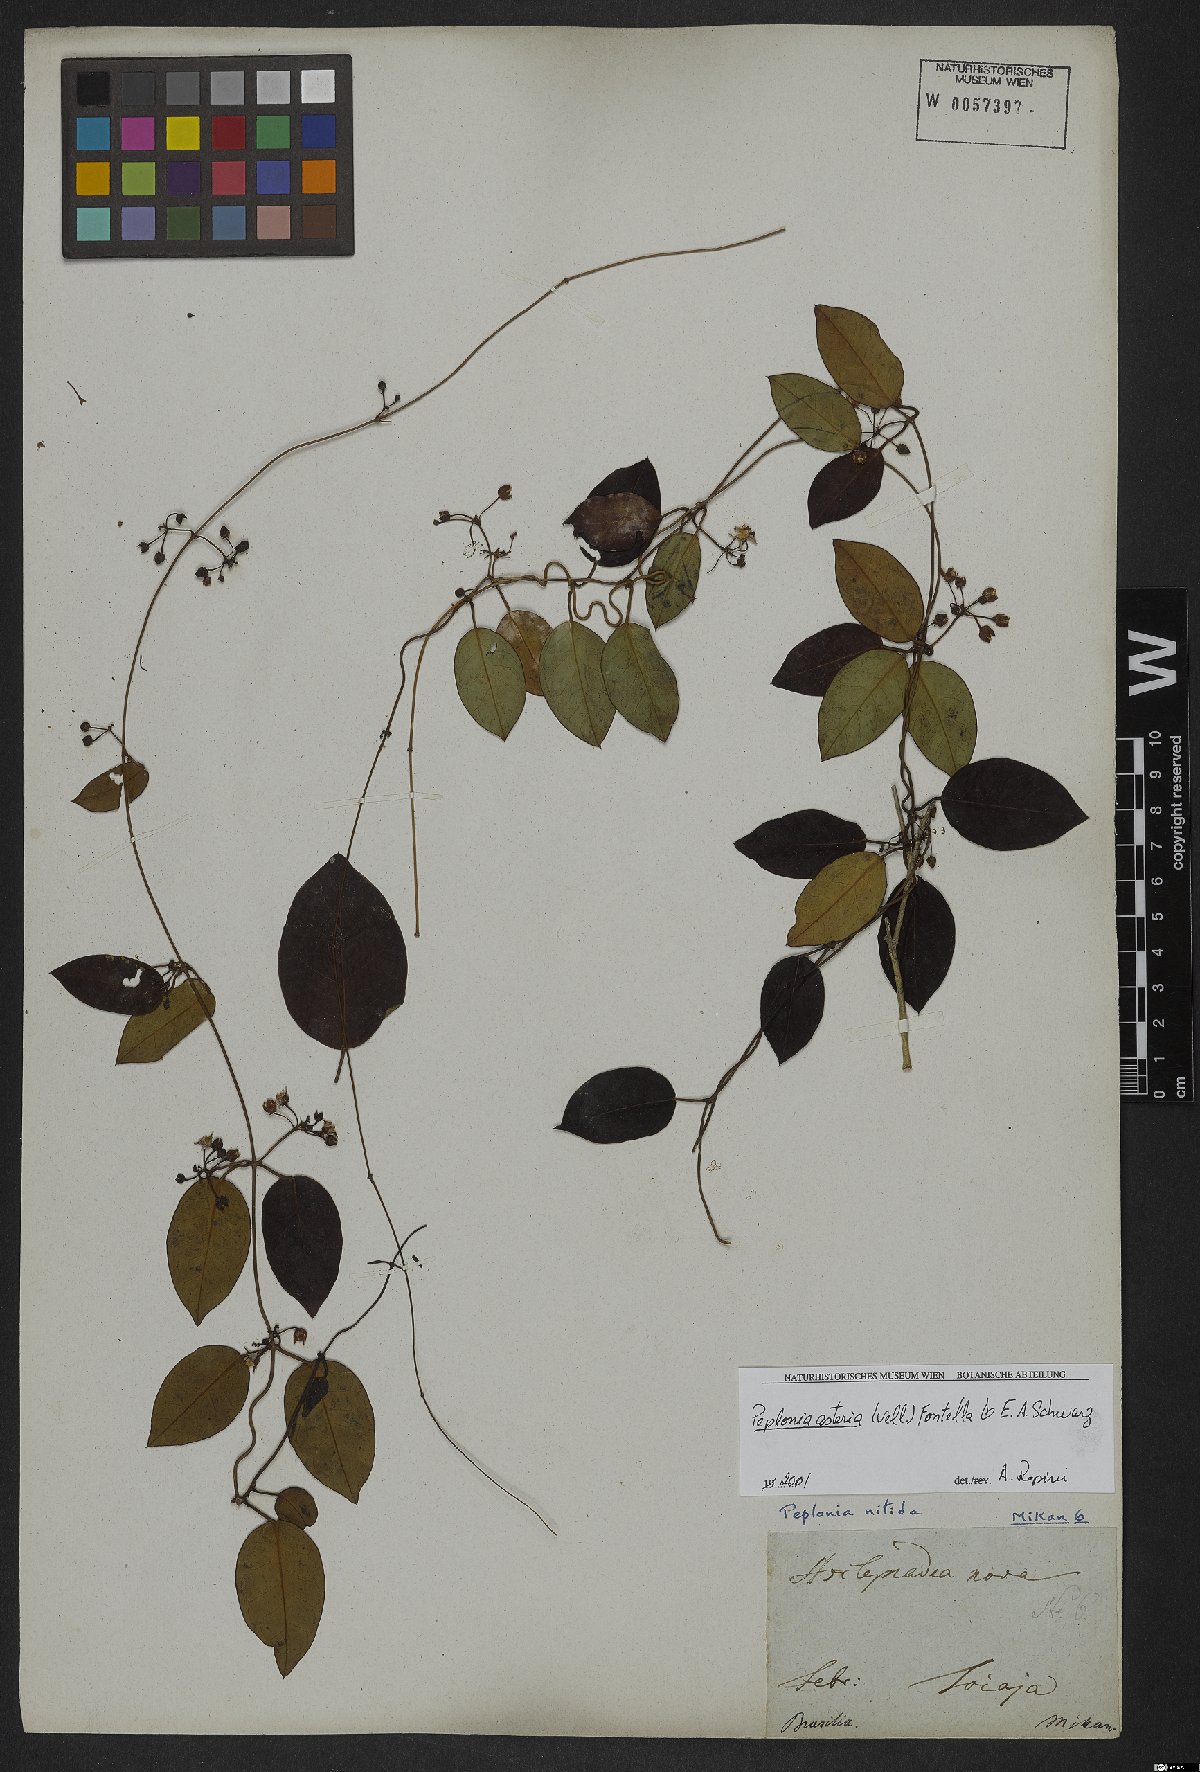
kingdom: Plantae
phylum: Tracheophyta
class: Magnoliopsida
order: Gentianales
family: Apocynaceae
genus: Peplonia
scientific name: Peplonia asteria
